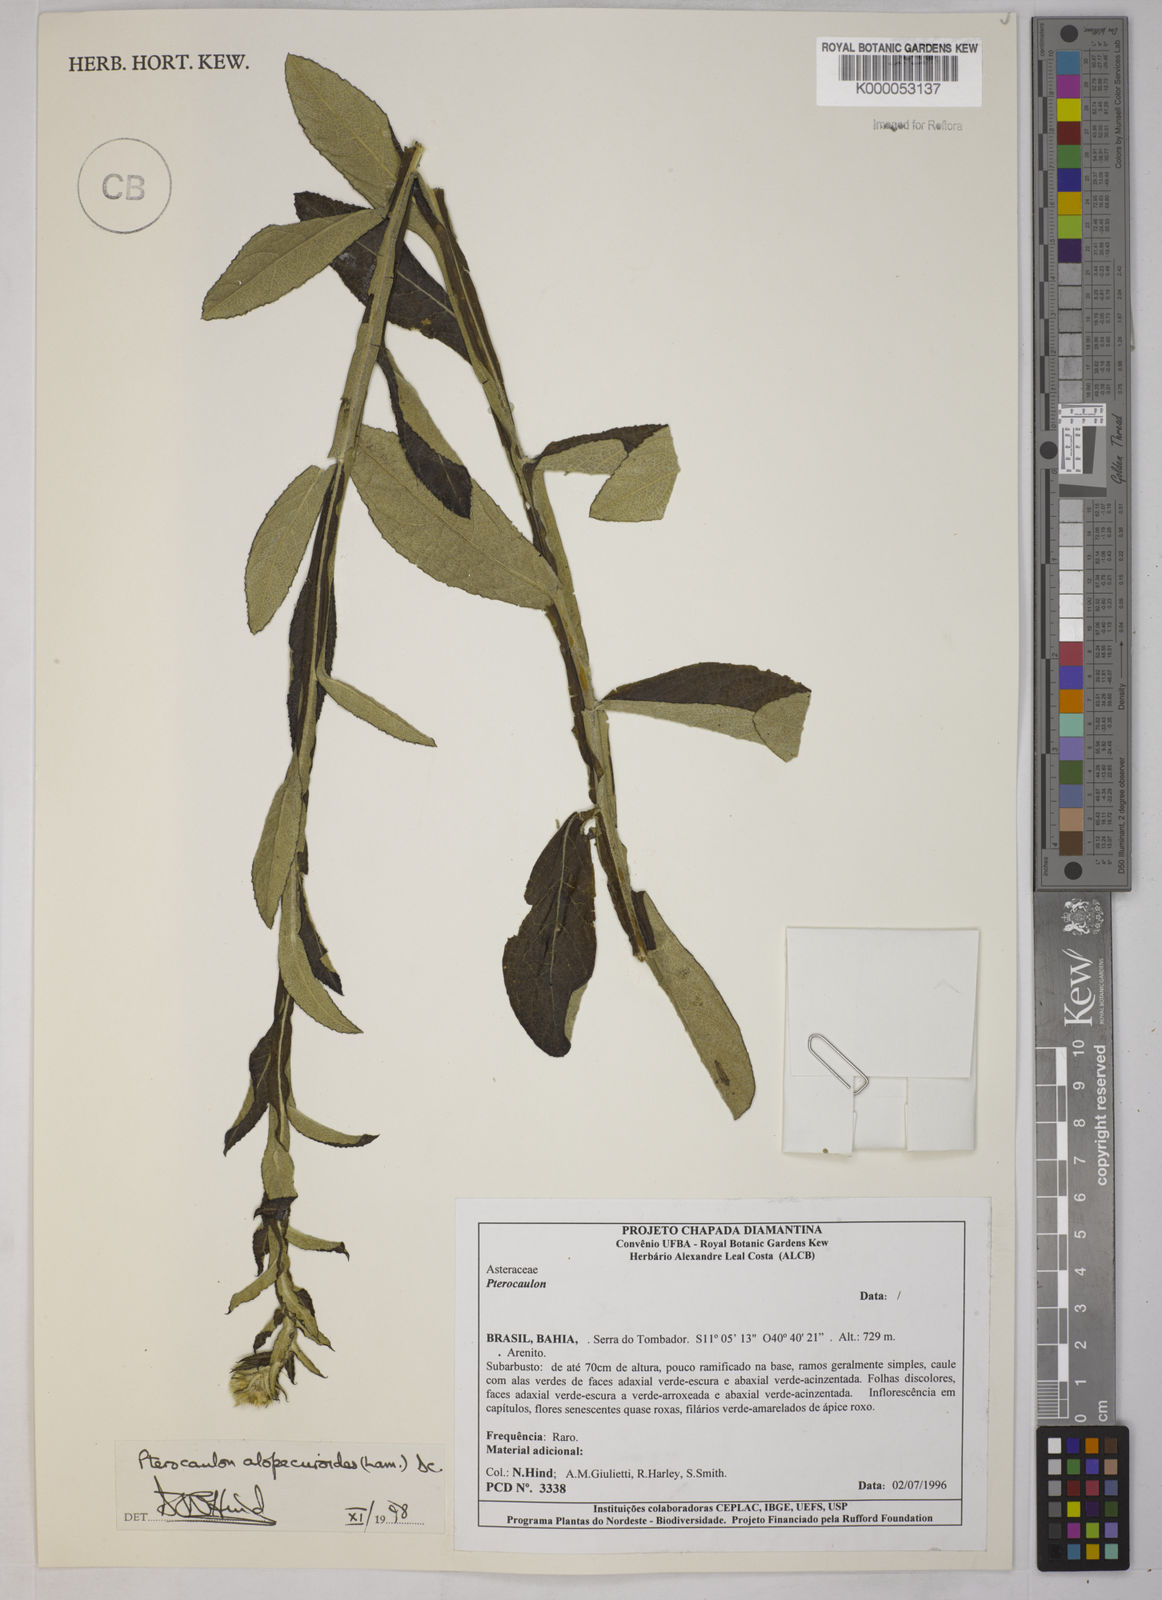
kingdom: Plantae
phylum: Tracheophyta
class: Magnoliopsida
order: Asterales
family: Asteraceae
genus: Pterocaulon
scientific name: Pterocaulon alopecuroides
